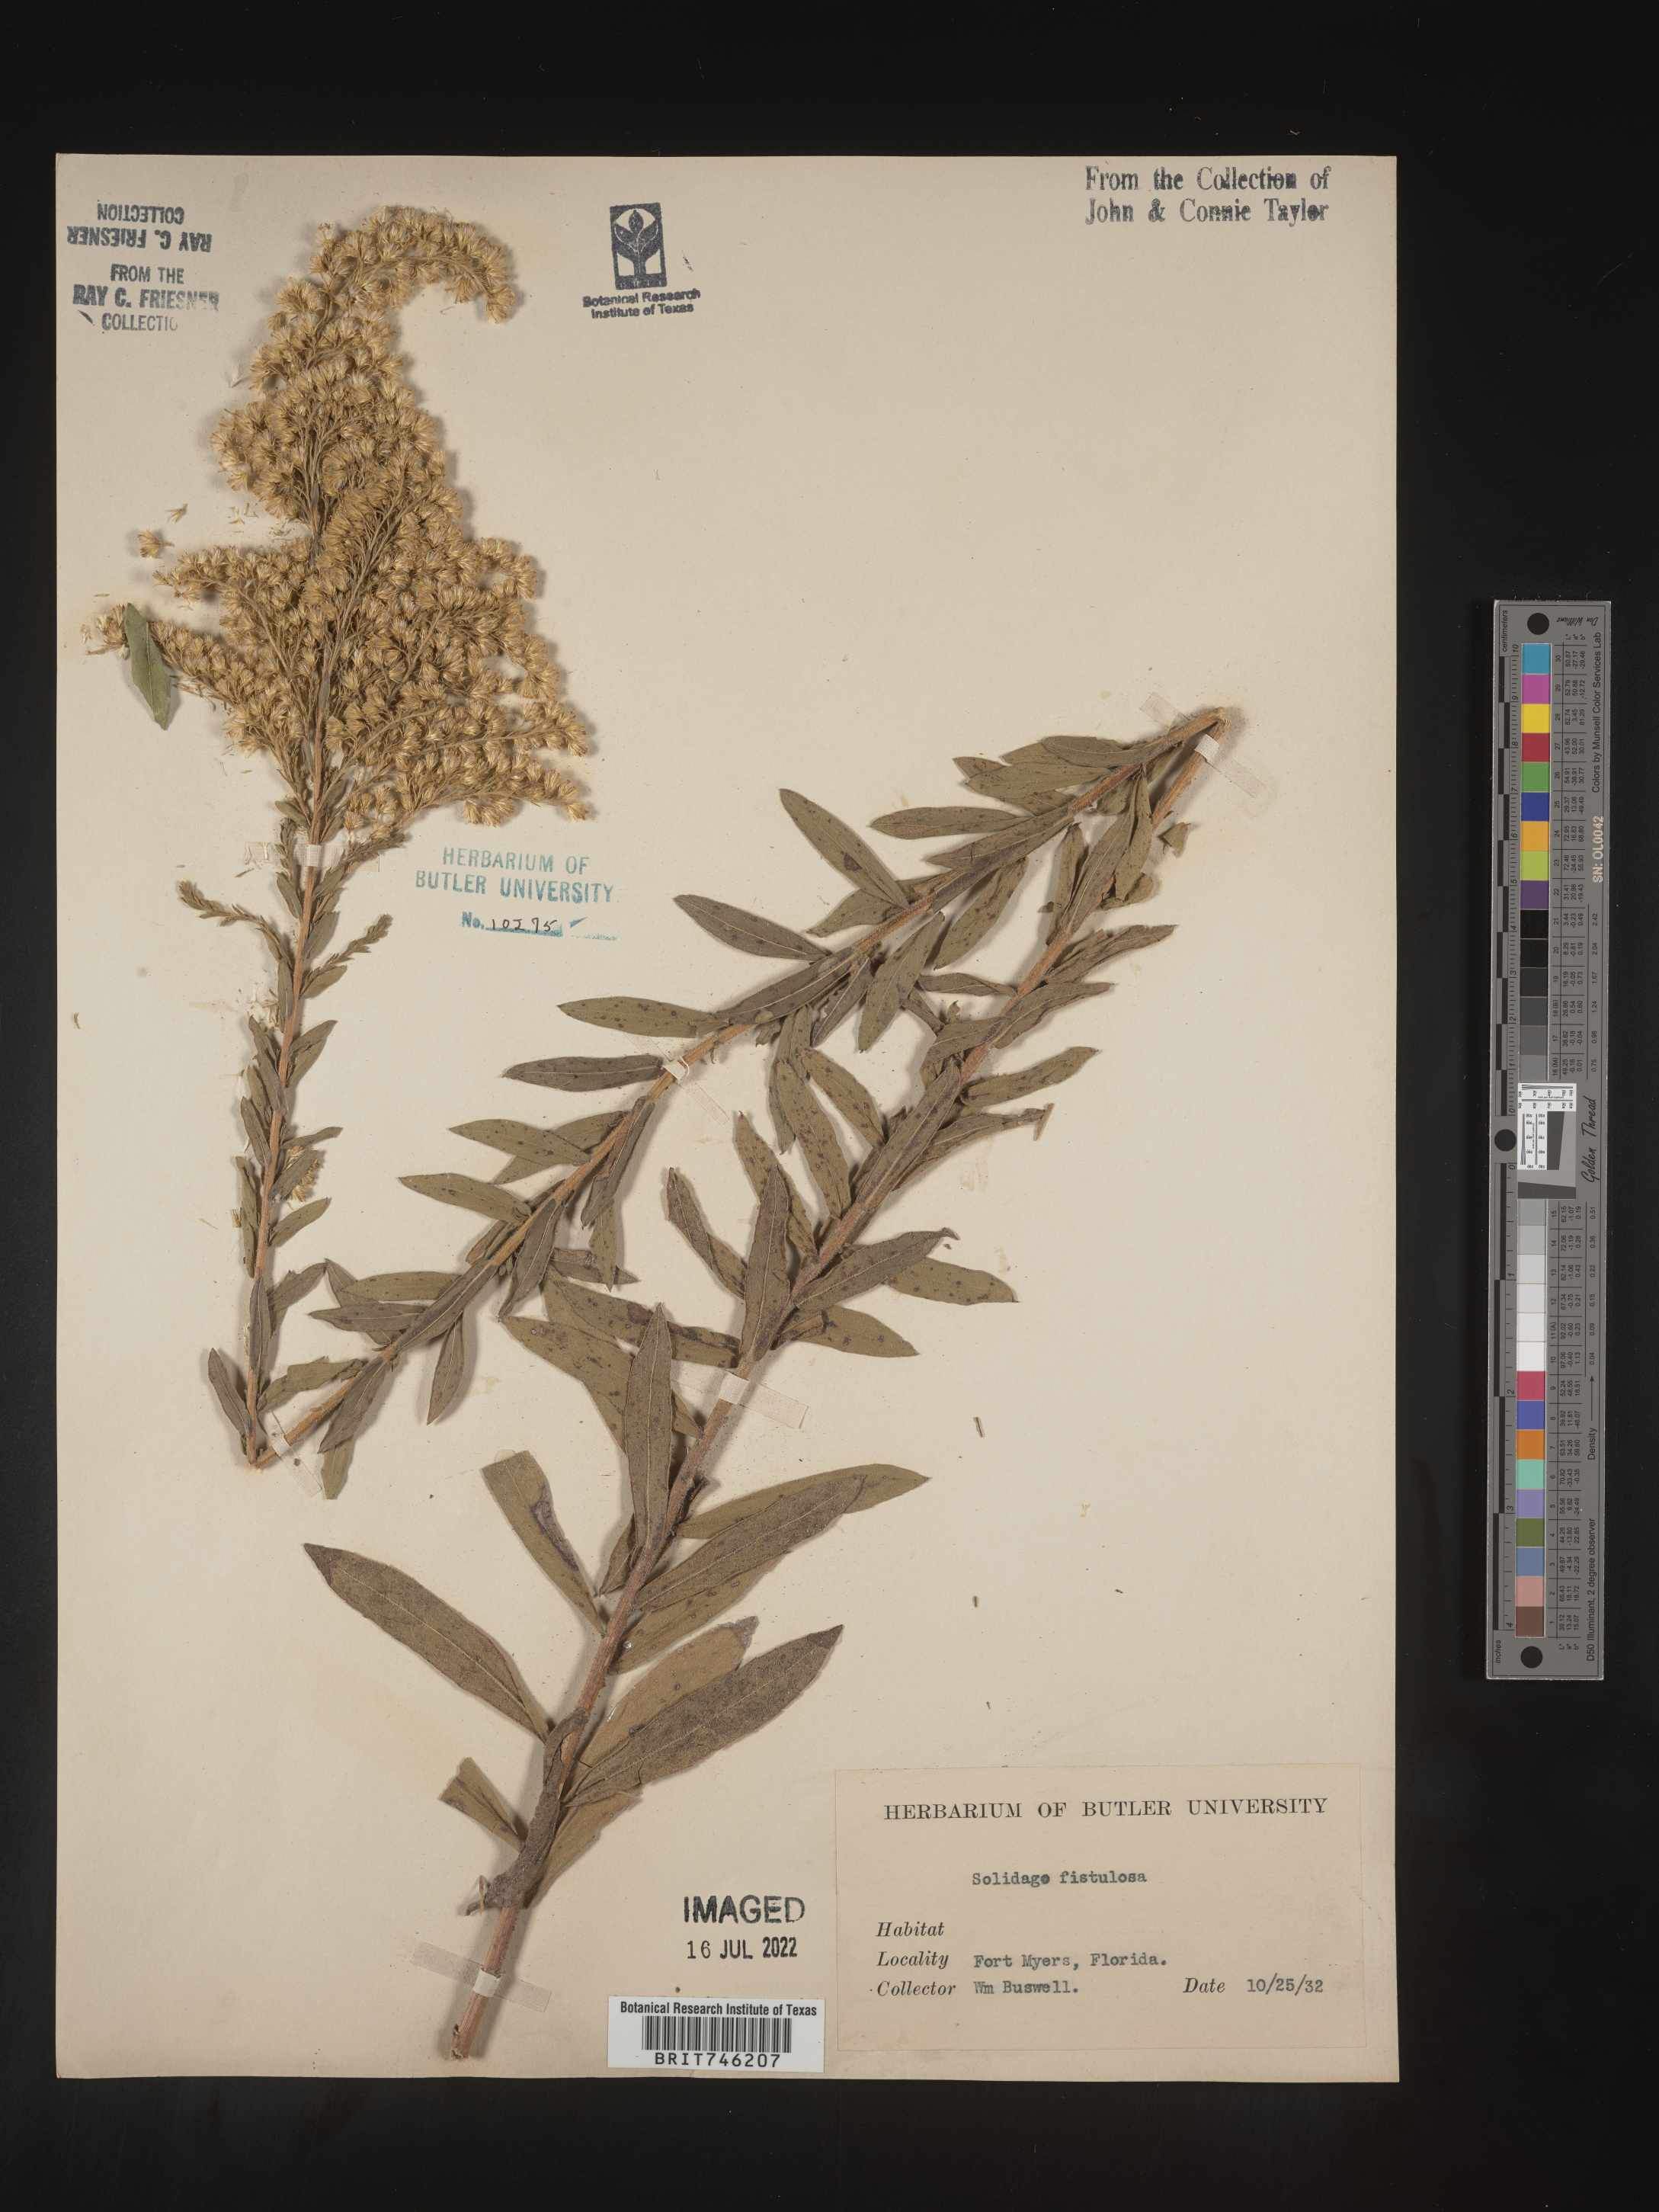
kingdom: Plantae
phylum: Tracheophyta
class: Magnoliopsida
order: Asterales
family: Asteraceae
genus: Solidago
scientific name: Solidago fistulosa
